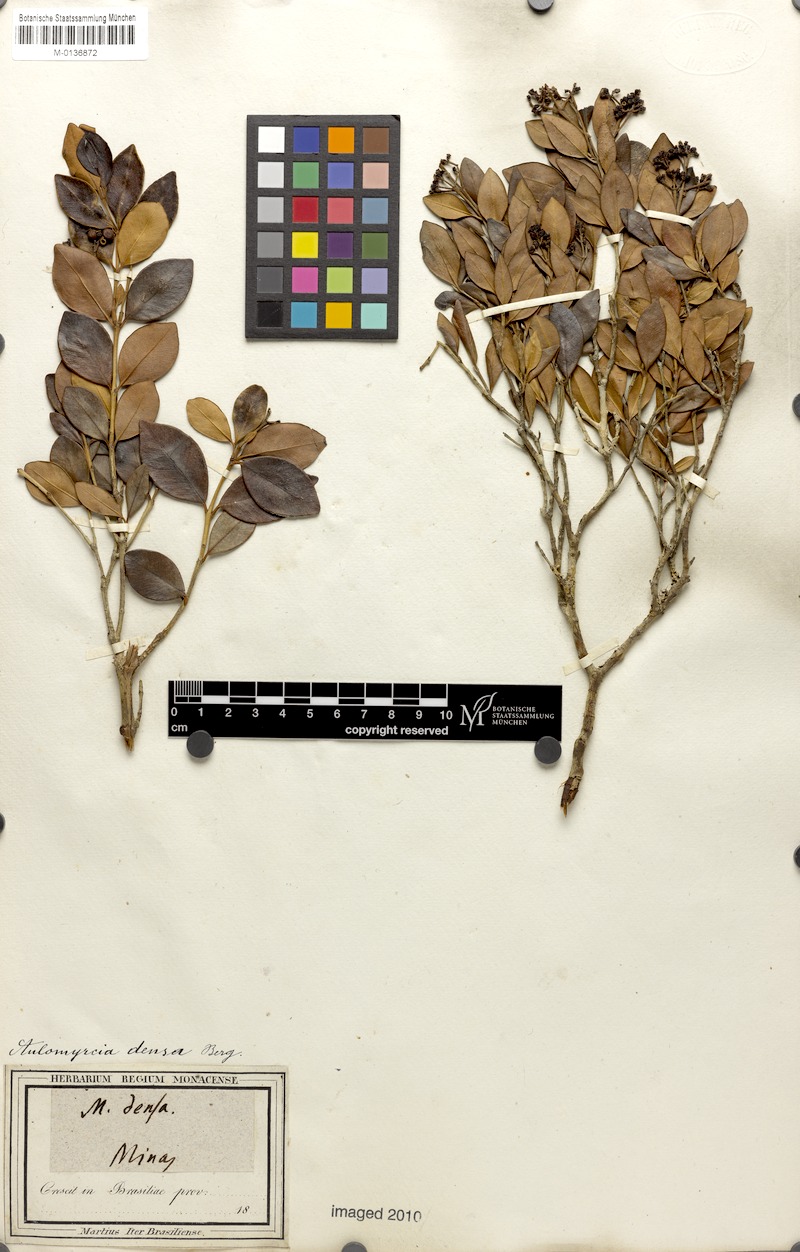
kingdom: Plantae
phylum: Tracheophyta
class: Magnoliopsida
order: Myrtales
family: Myrtaceae
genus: Myrcia
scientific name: Myrcia densa
